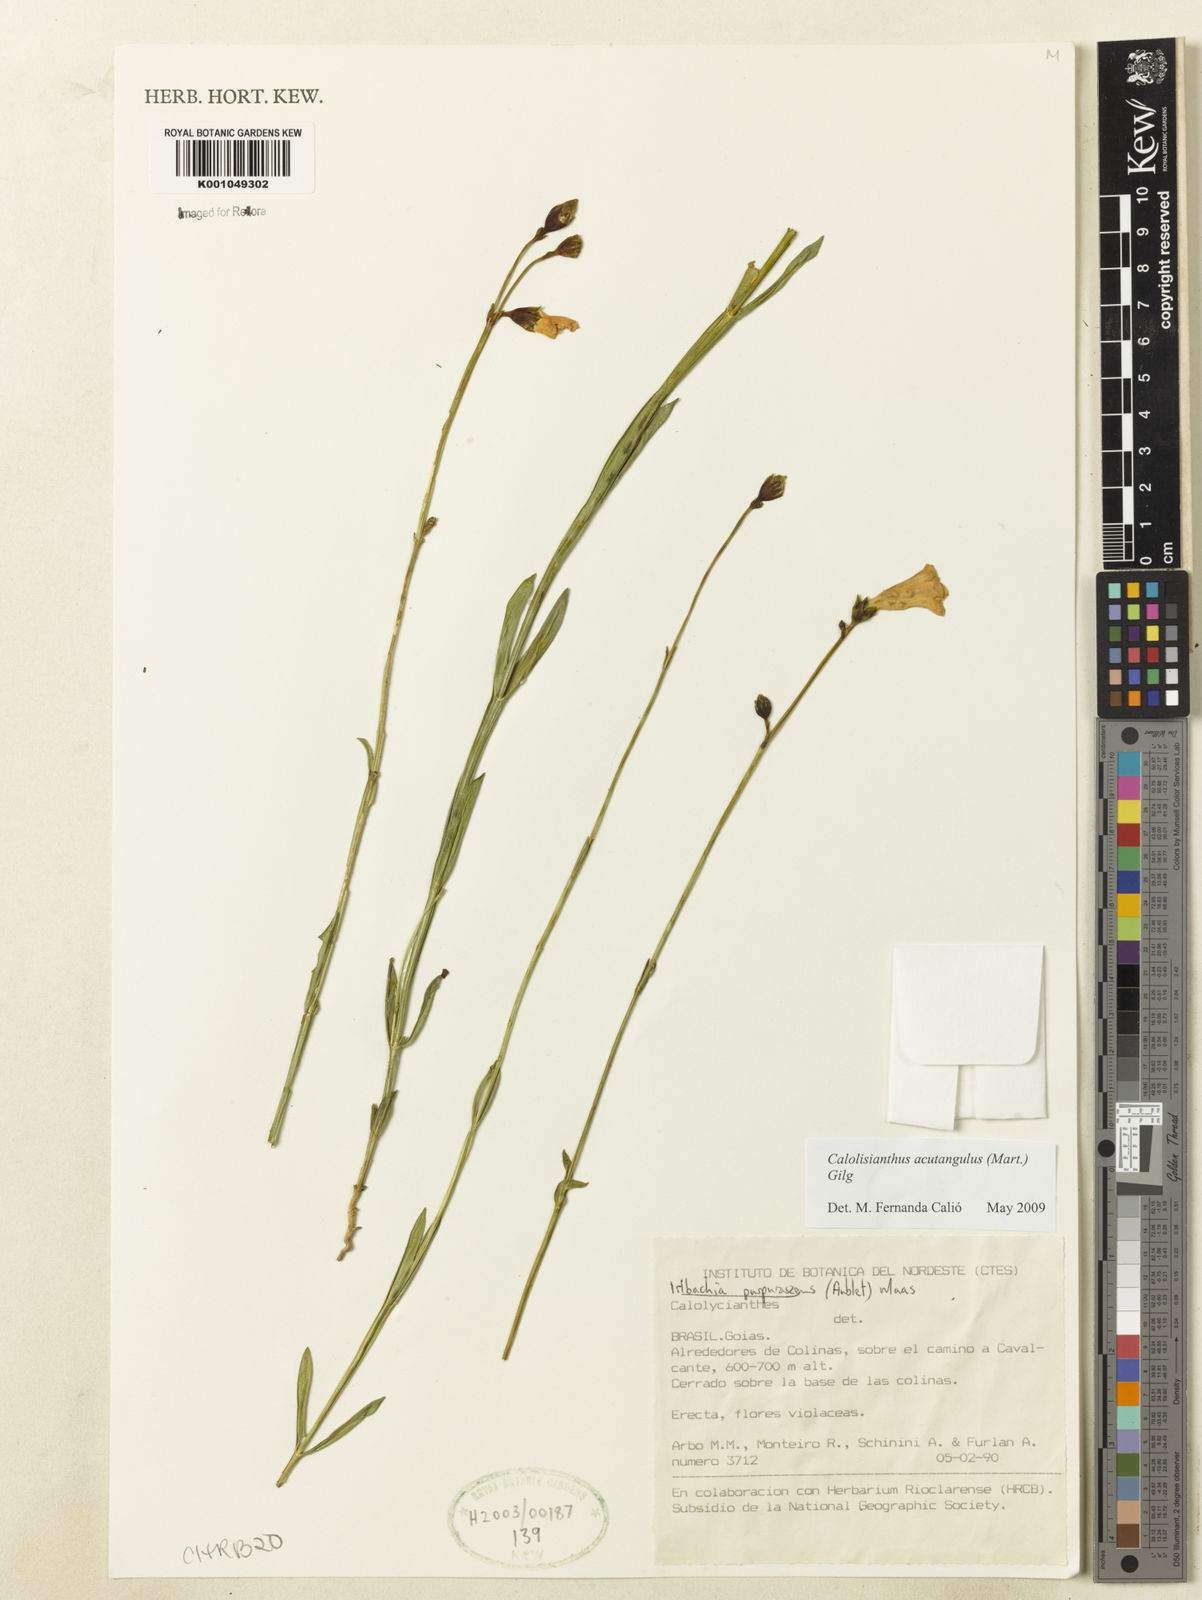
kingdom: Plantae
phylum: Tracheophyta
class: Magnoliopsida
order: Gentianales
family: Gentianaceae
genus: Lisianthius
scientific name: Lisianthius tetragonoalatus
